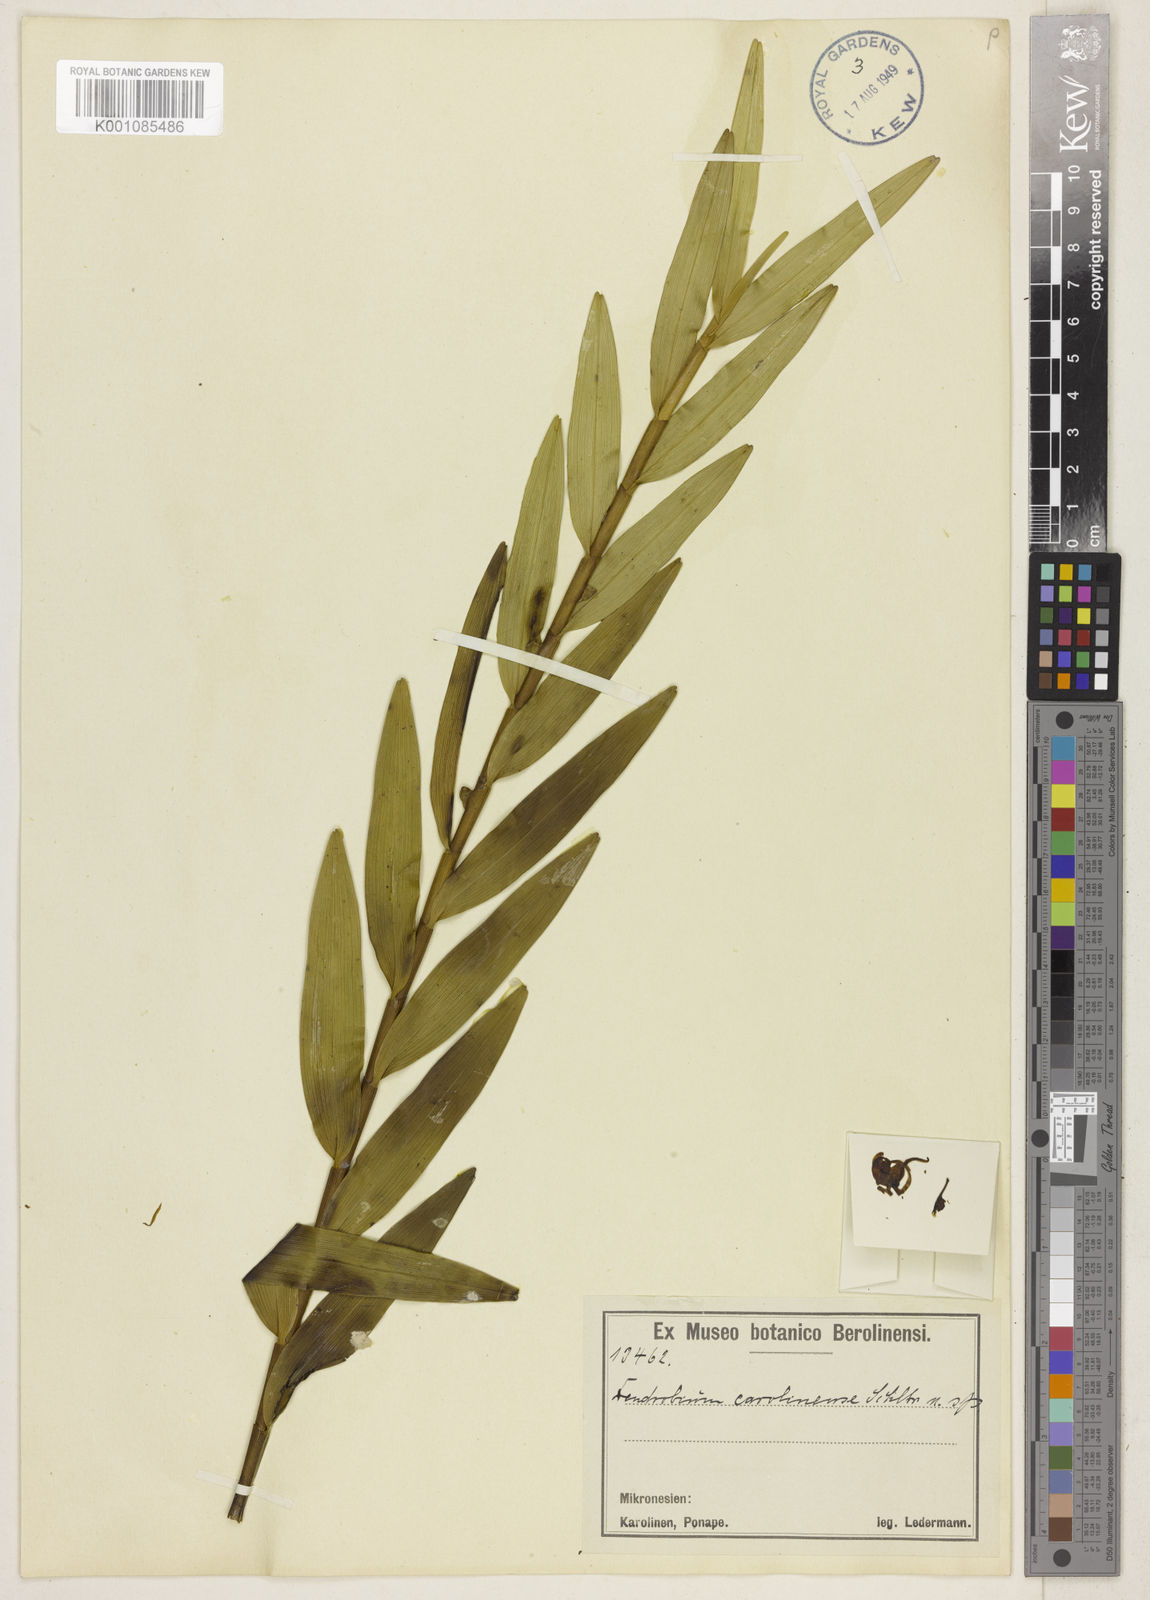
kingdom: Plantae
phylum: Tracheophyta
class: Liliopsida
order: Asparagales
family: Orchidaceae
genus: Dendrobium
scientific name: Dendrobium carolinense
